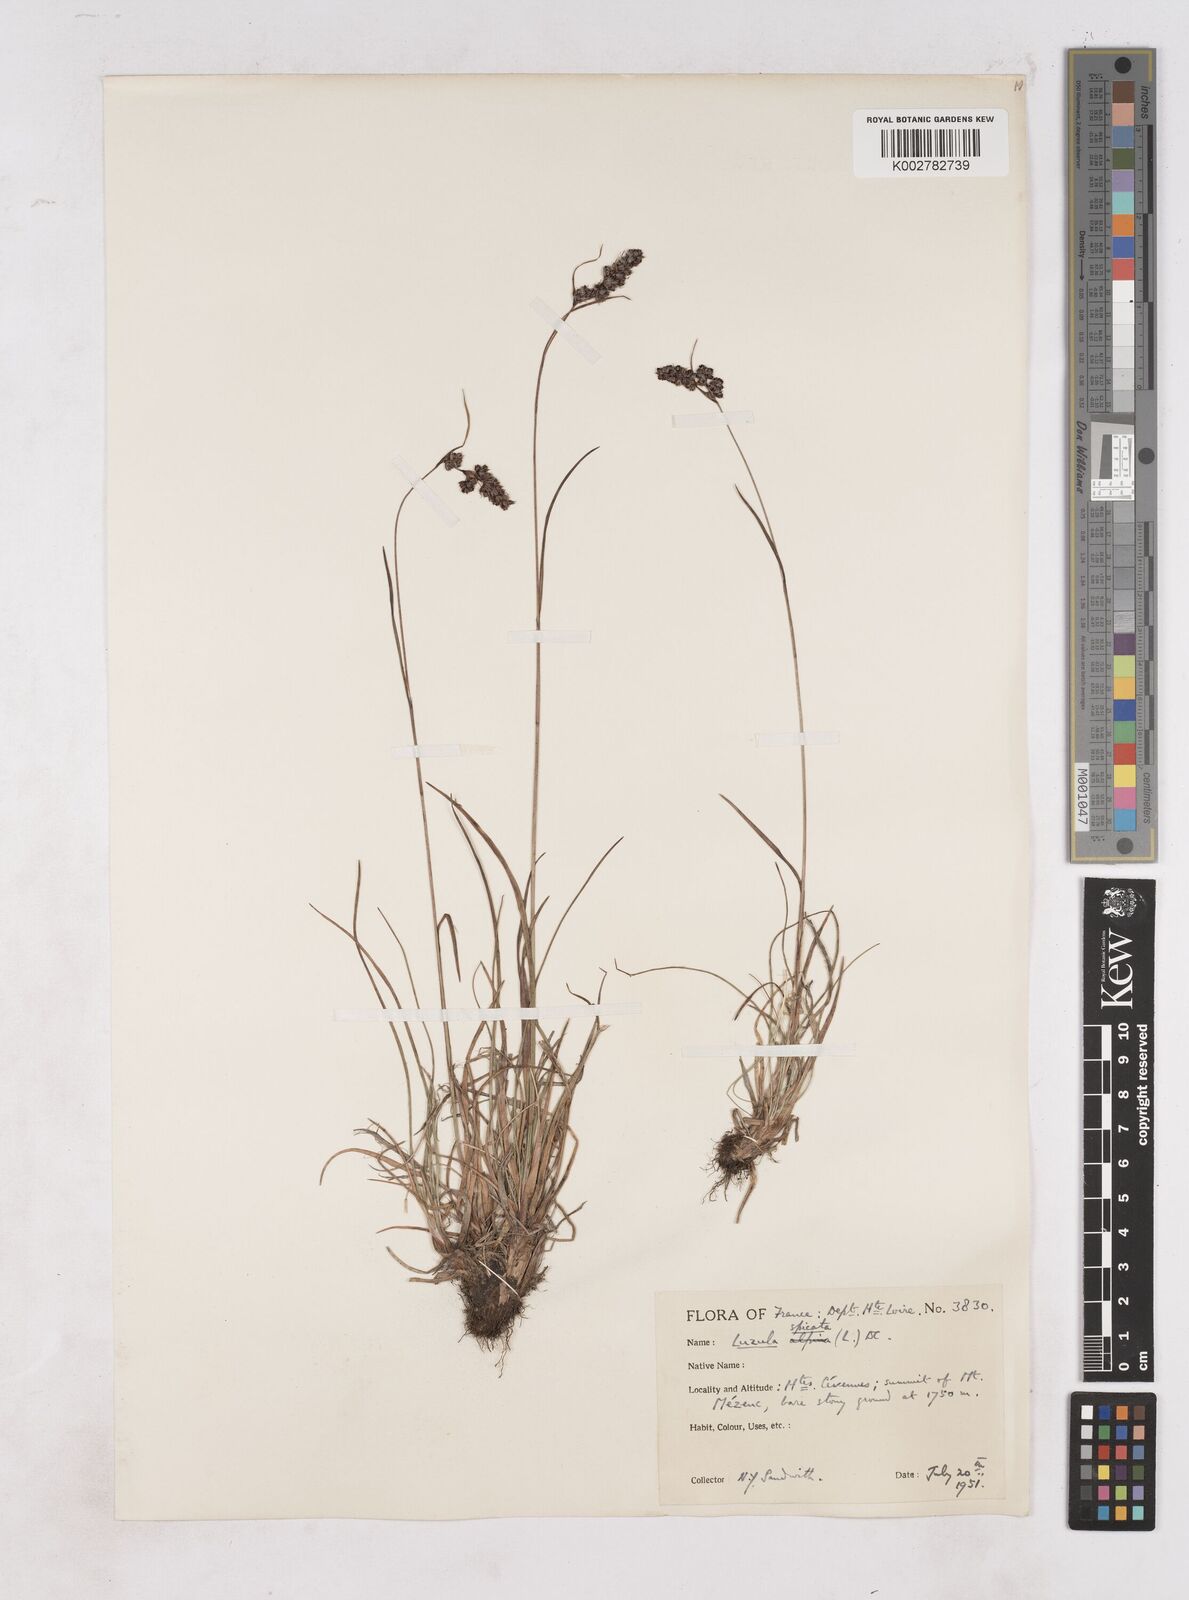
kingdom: Plantae
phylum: Tracheophyta
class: Liliopsida
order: Poales
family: Juncaceae
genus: Luzula
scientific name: Luzula spicata
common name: Spiked wood-rush
